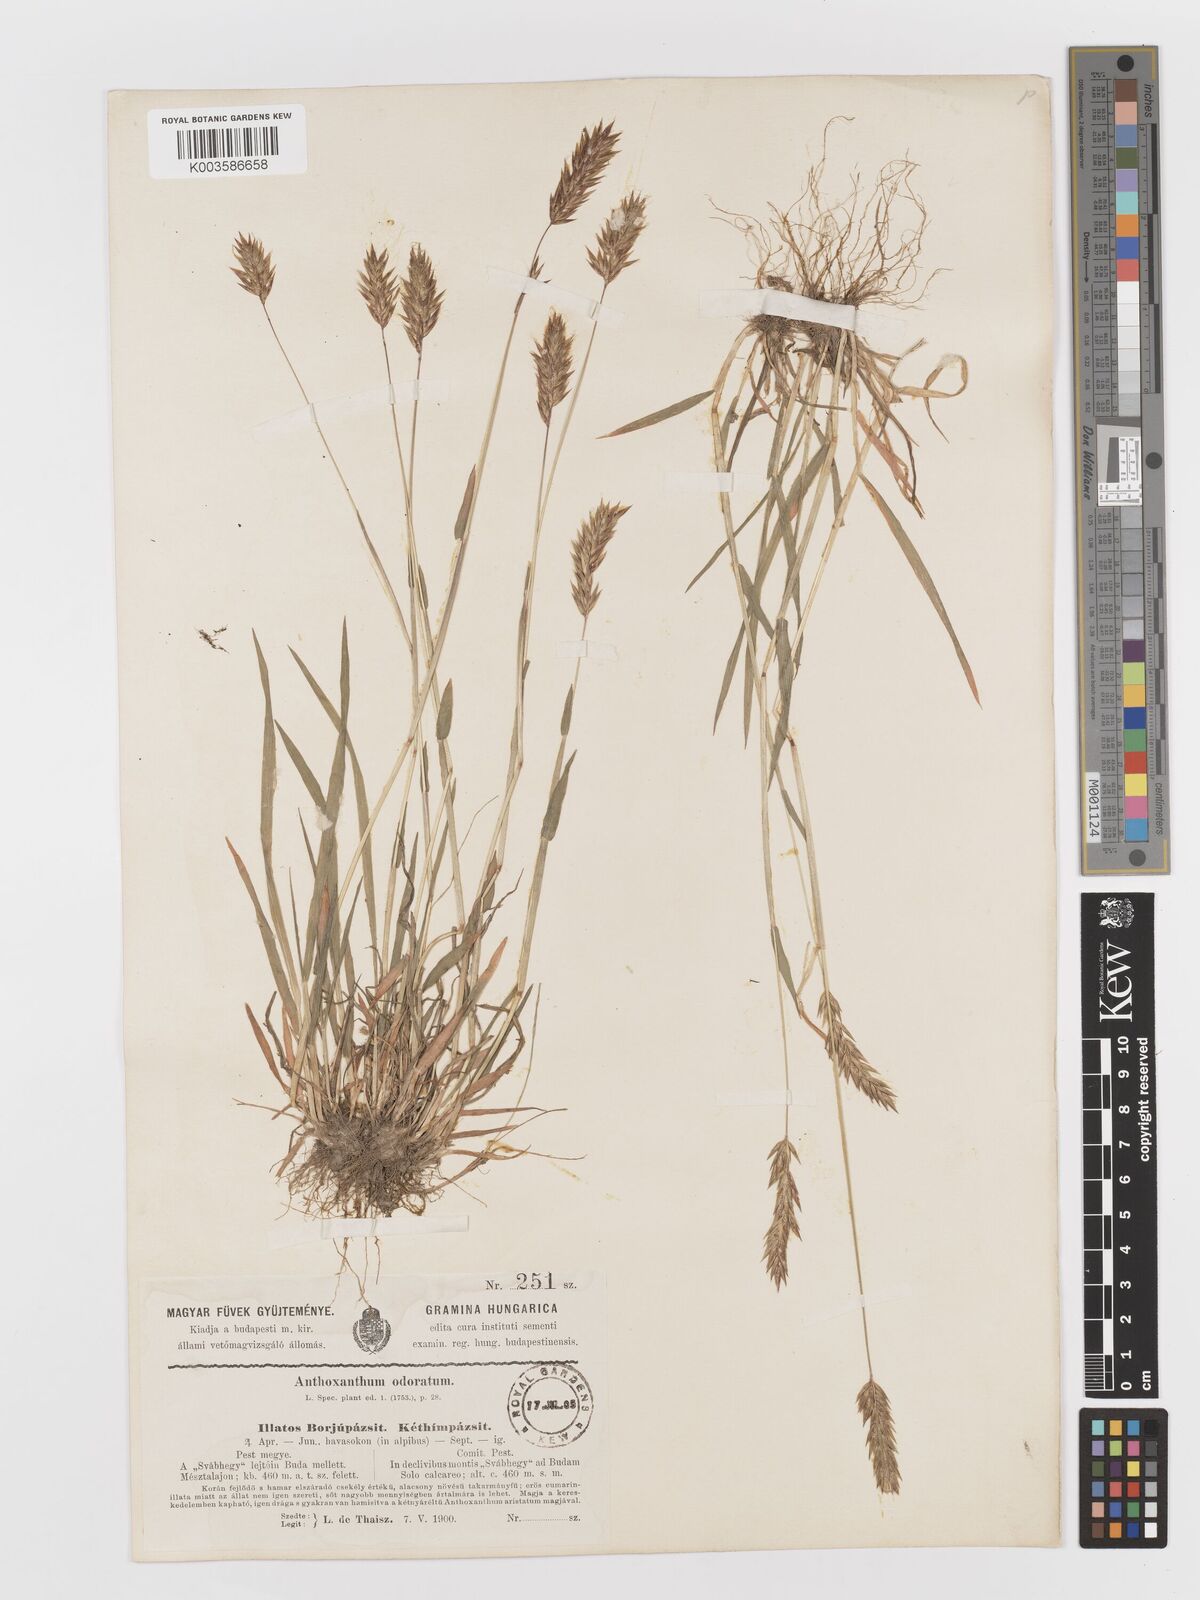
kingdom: Plantae
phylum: Tracheophyta
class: Liliopsida
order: Poales
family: Poaceae
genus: Anthoxanthum
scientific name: Anthoxanthum odoratum
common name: Sweet vernalgrass
